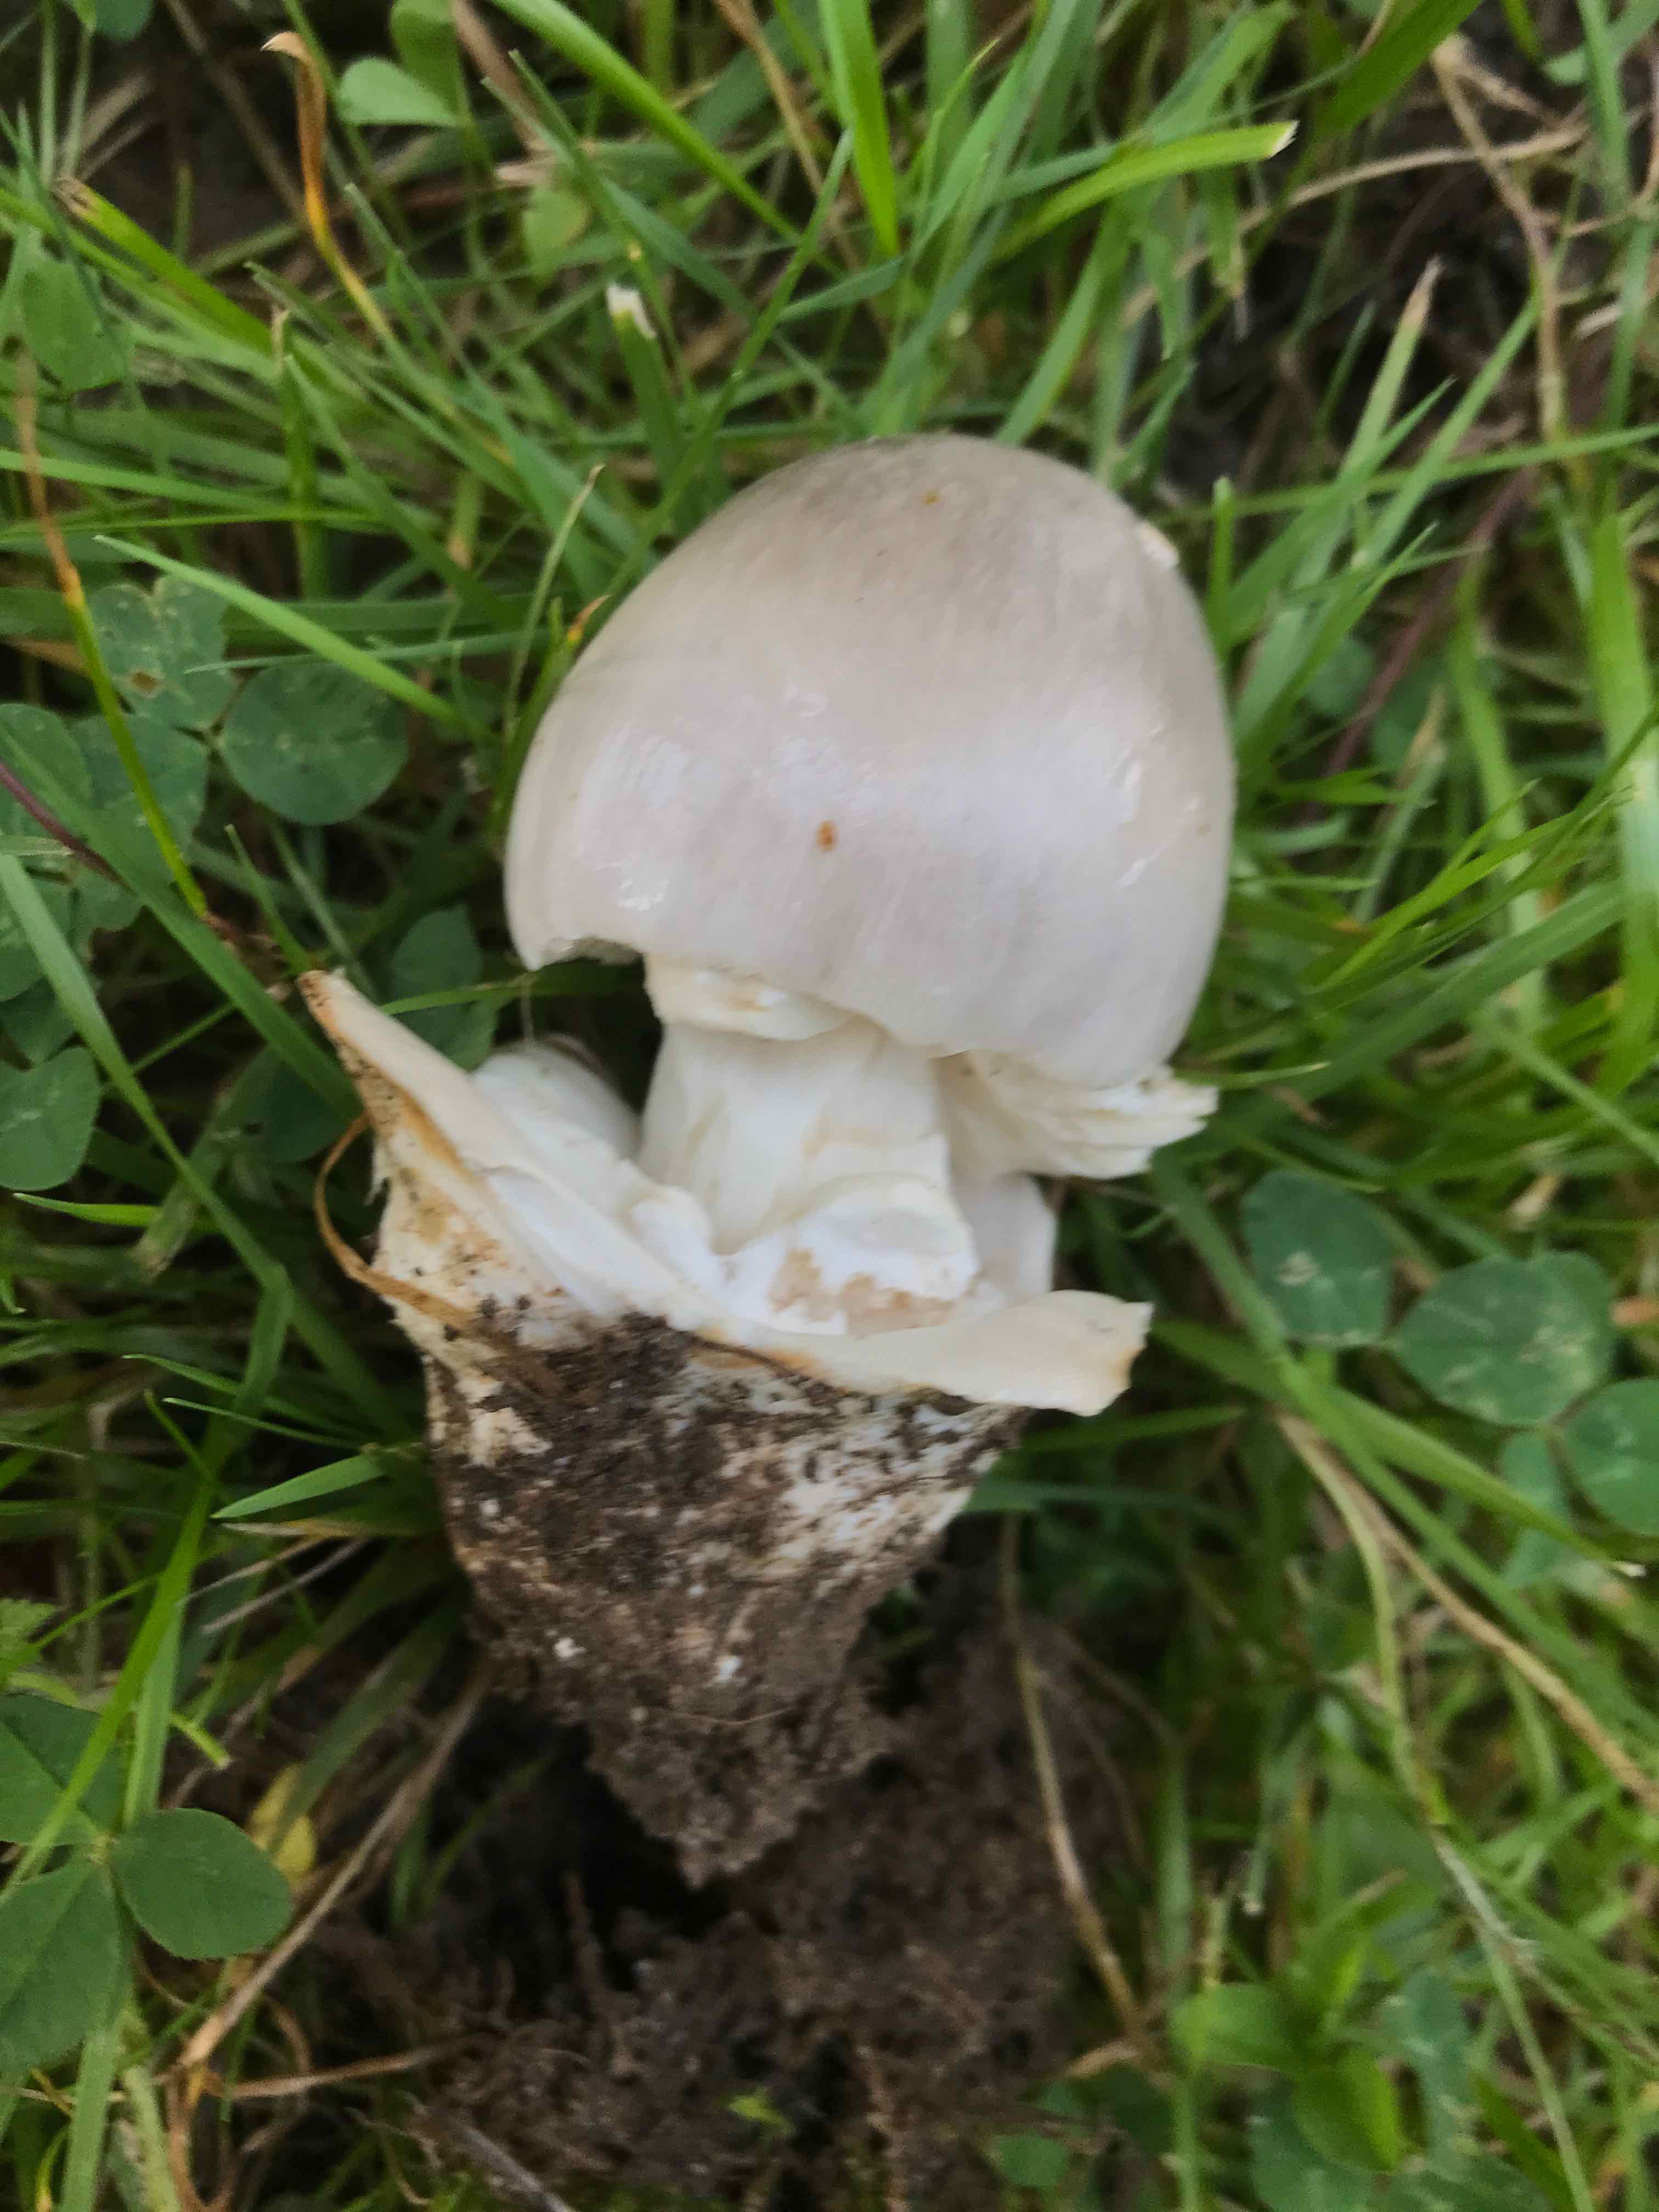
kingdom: Fungi
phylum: Basidiomycota
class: Agaricomycetes
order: Agaricales
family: Amanitaceae
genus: Amanita
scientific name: Amanita
